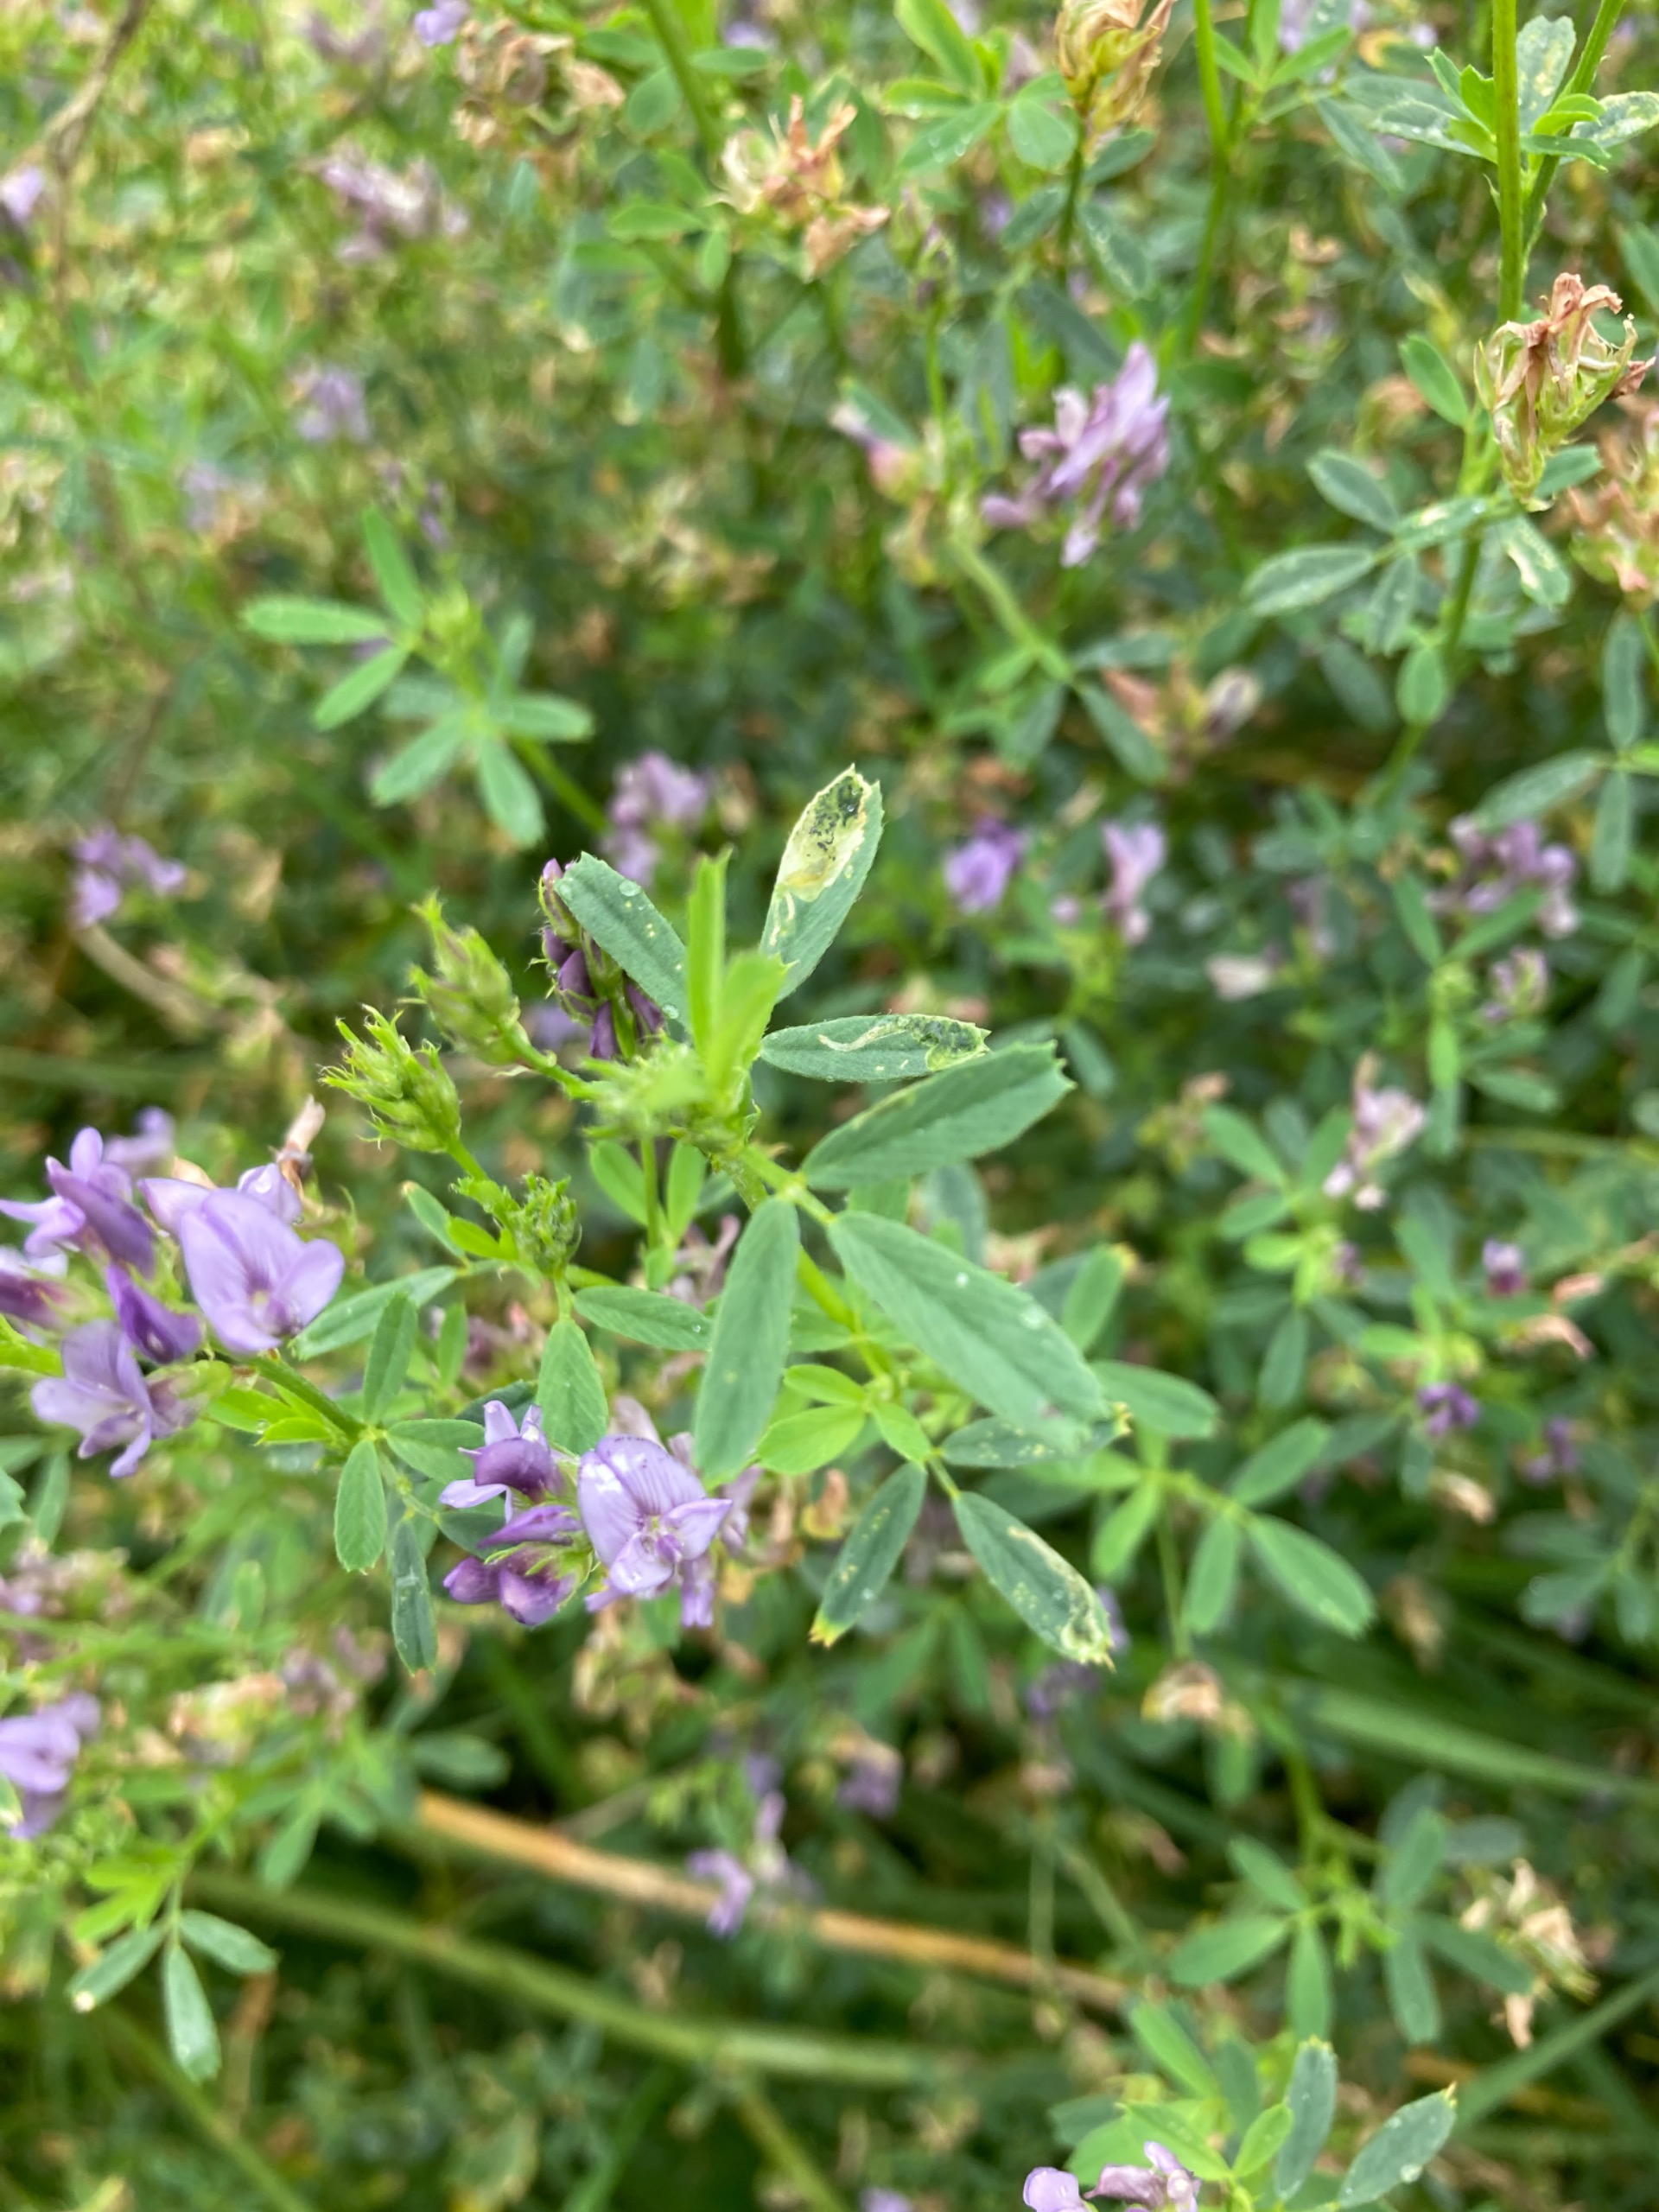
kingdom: Plantae
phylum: Tracheophyta
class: Magnoliopsida
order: Fabales
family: Fabaceae
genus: Medicago
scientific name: Medicago sativa
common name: Foderlucerne
